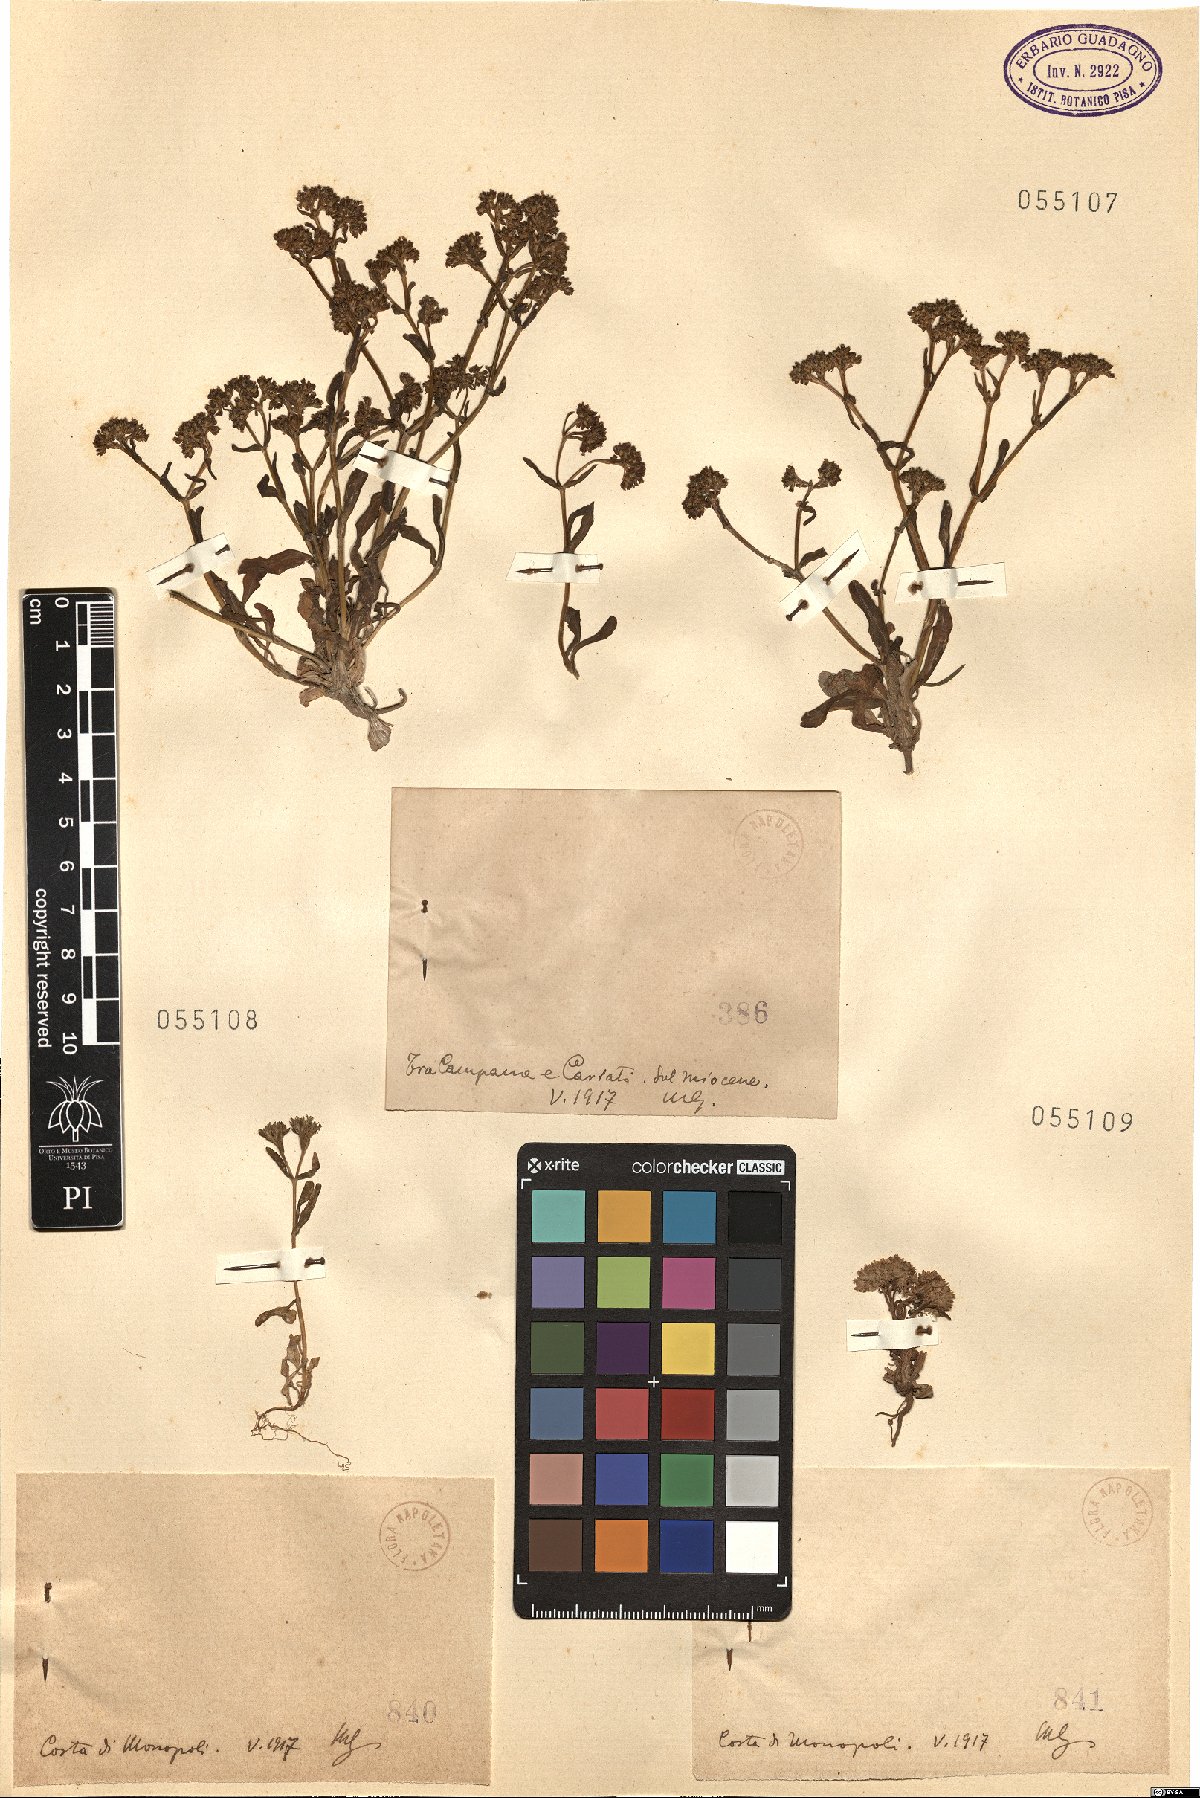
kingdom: Plantae
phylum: Tracheophyta
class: Magnoliopsida
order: Dipsacales
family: Caprifoliaceae
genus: Valerianella
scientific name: Valerianella
